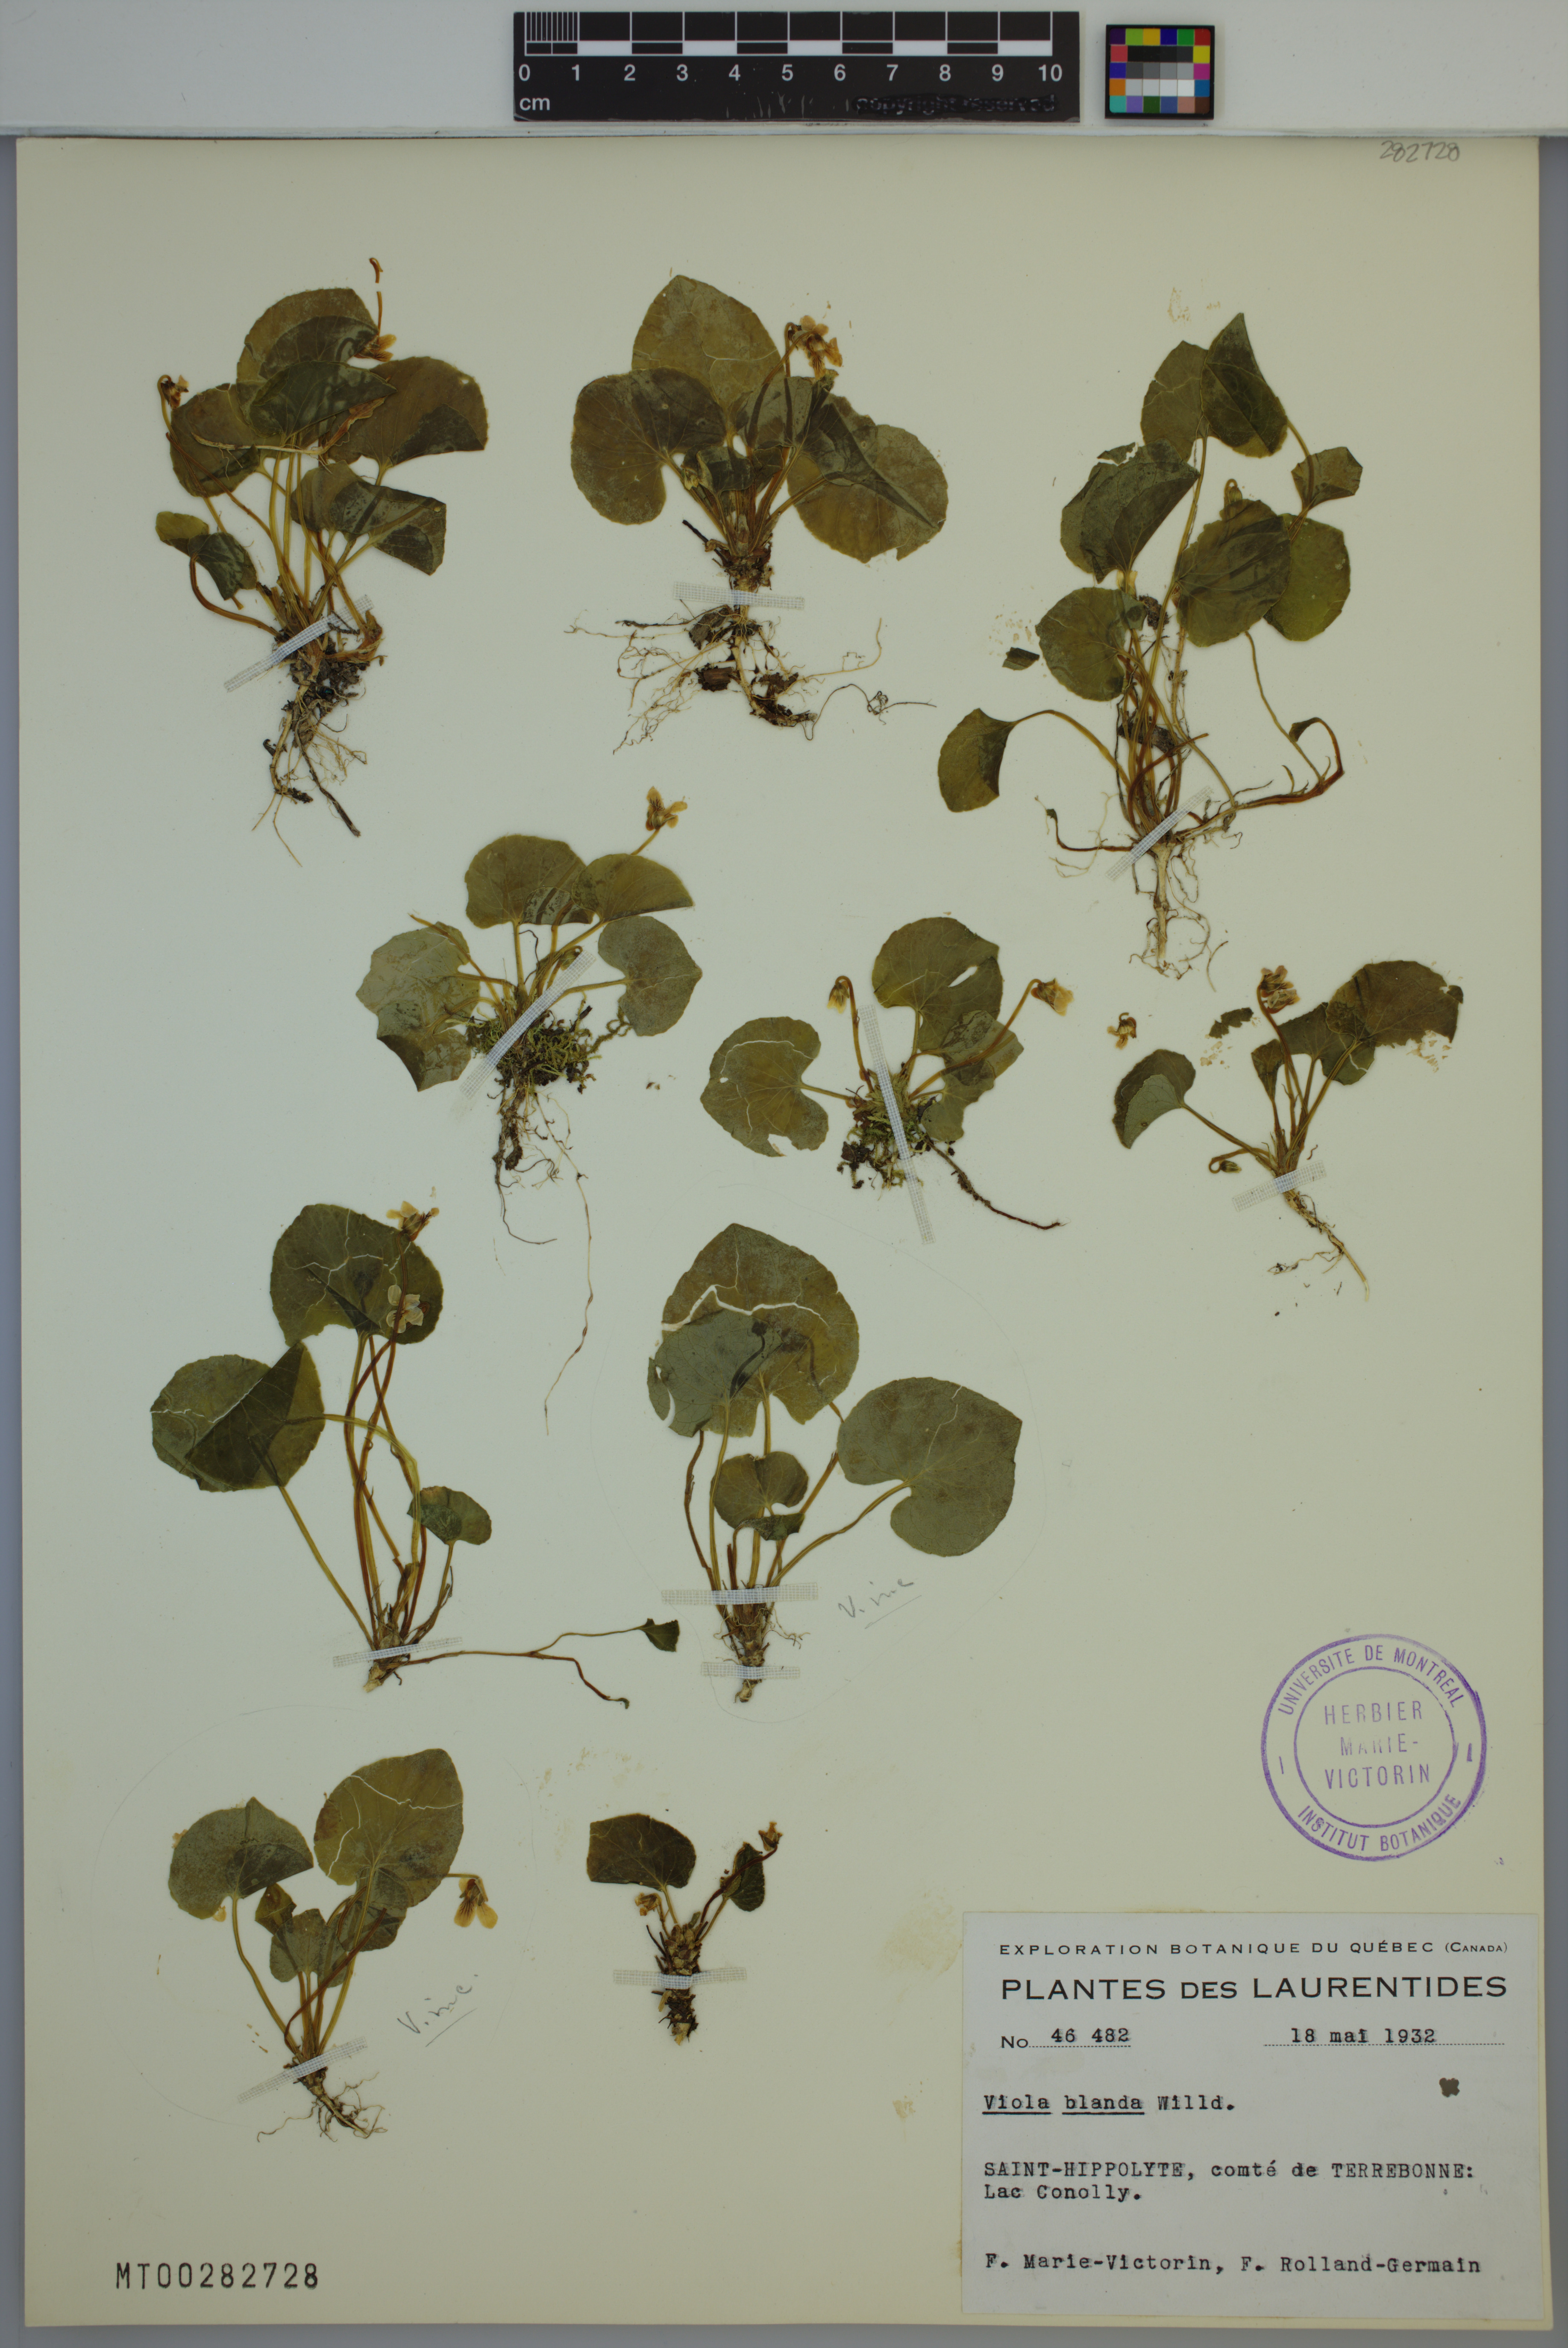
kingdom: Plantae
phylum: Tracheophyta
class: Magnoliopsida
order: Malpighiales
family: Violaceae
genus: Viola
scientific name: Viola blanda
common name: Sweet white violet
